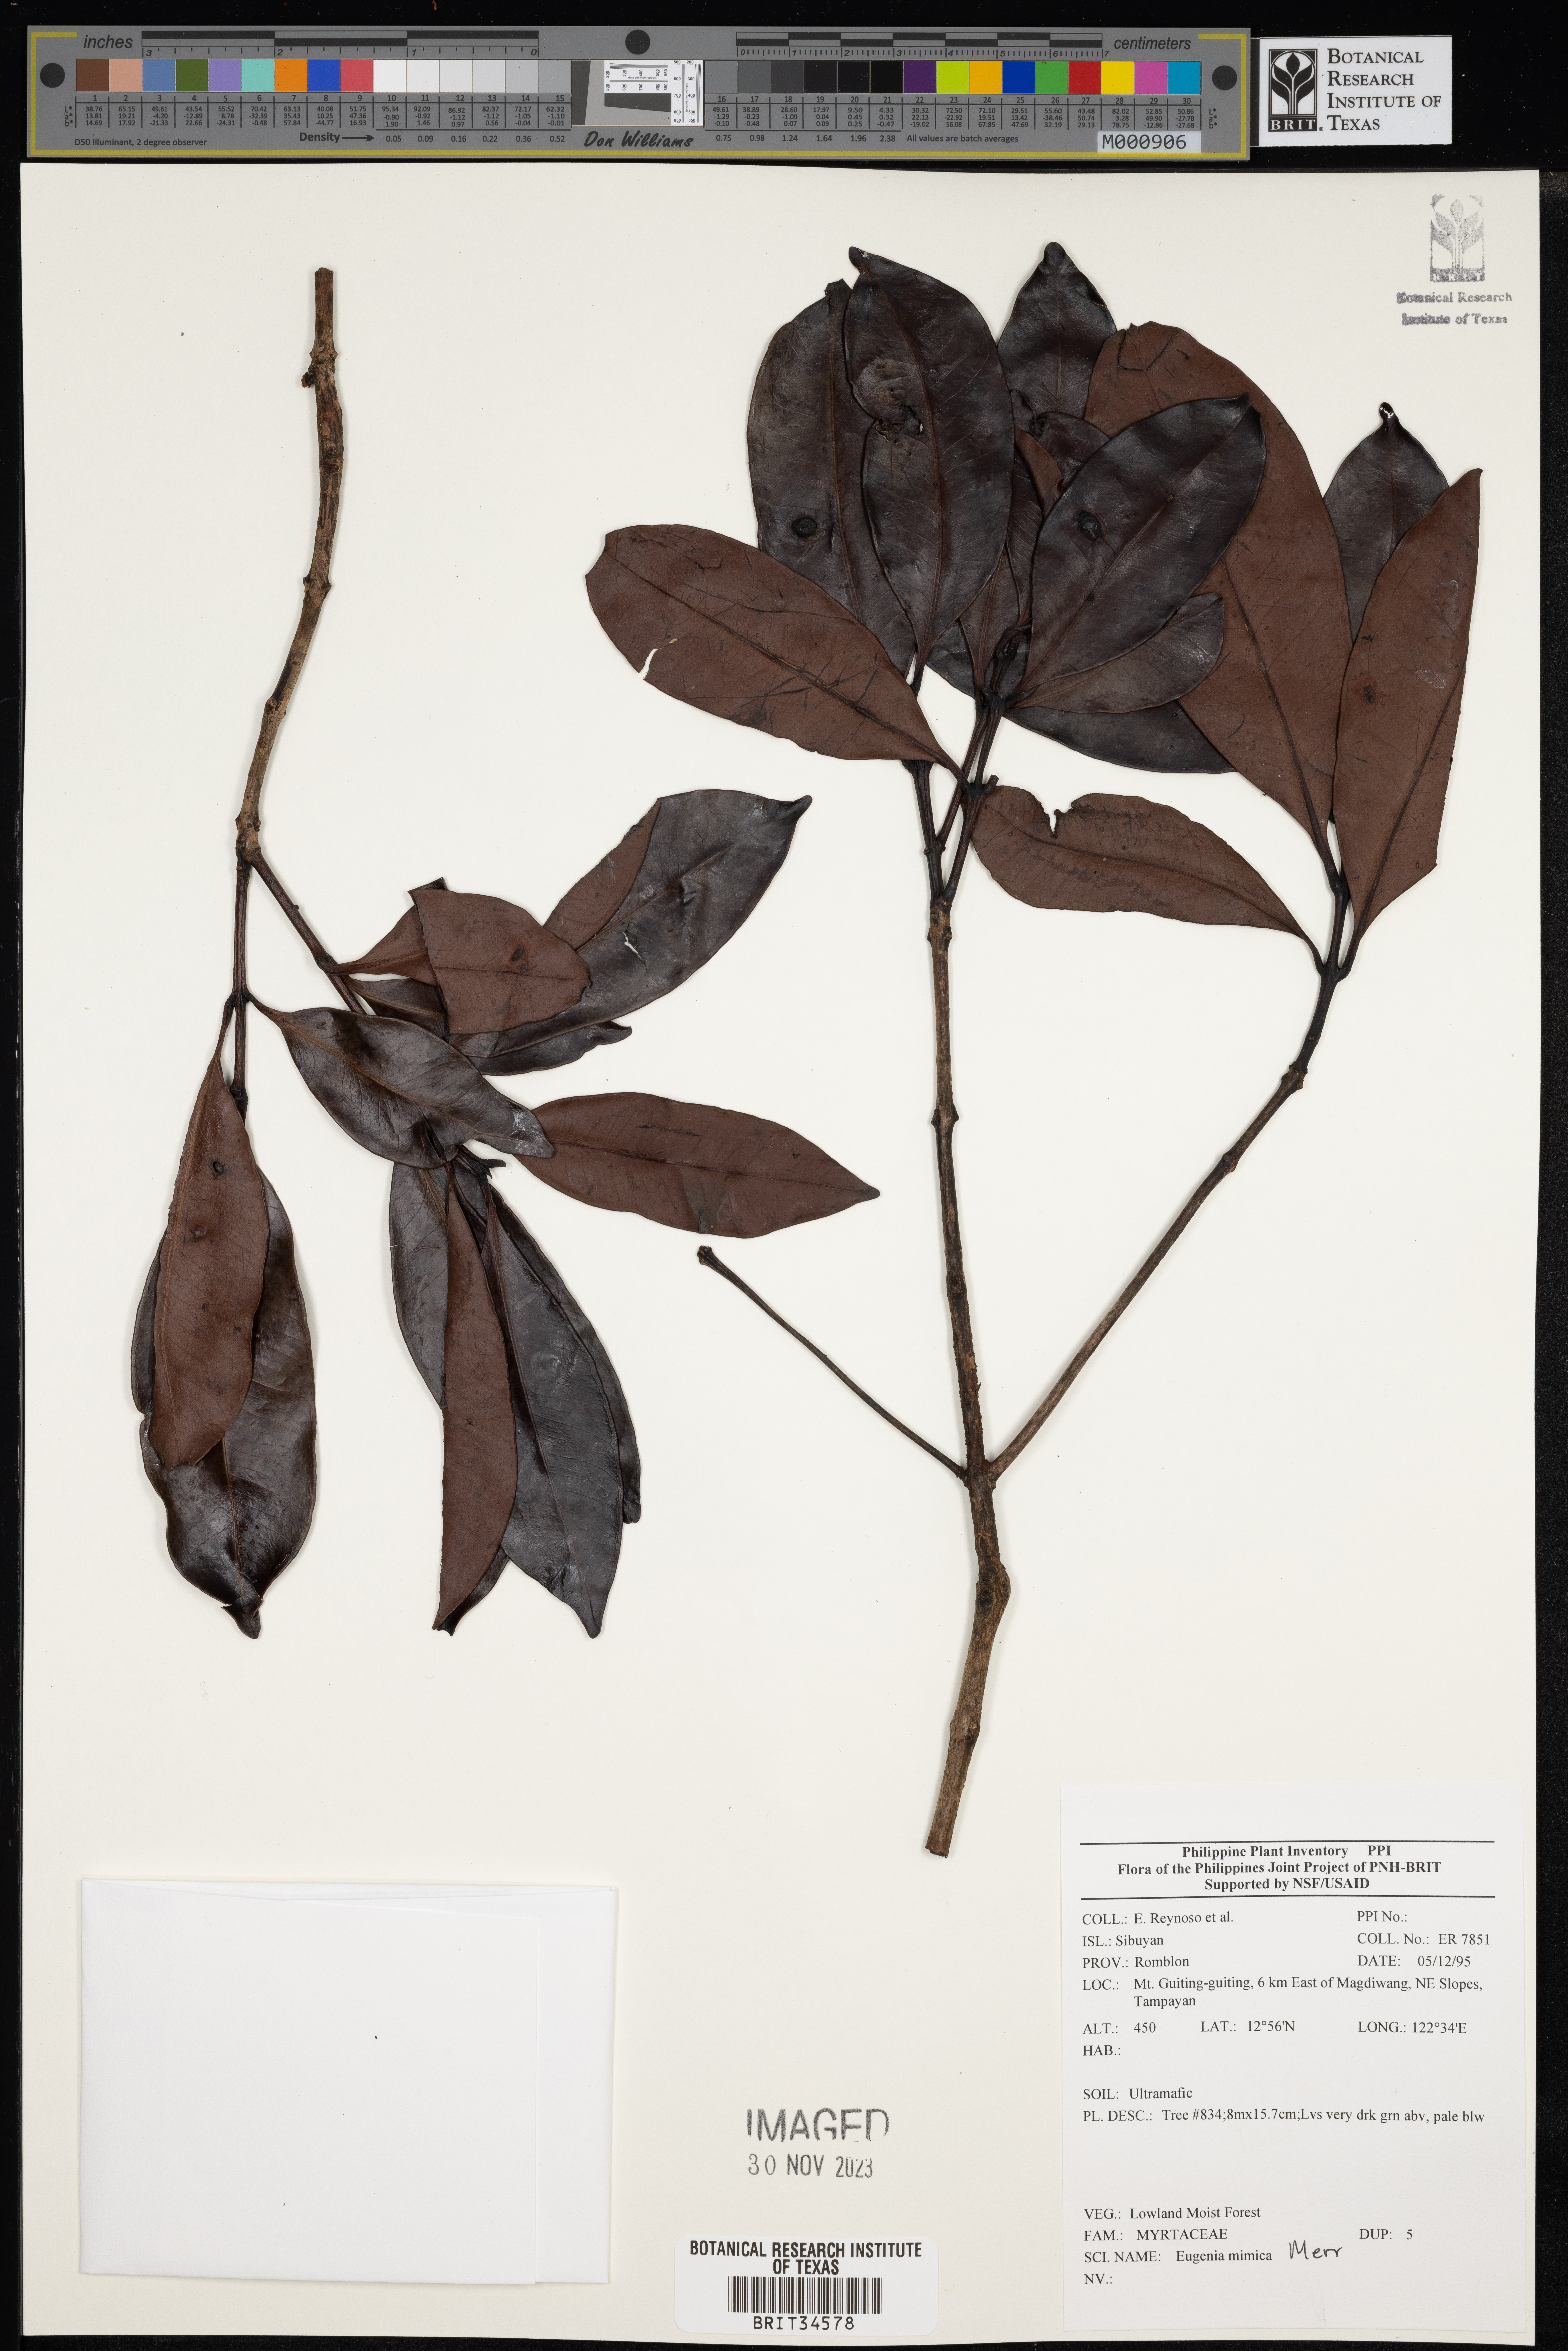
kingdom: Plantae
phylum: Tracheophyta
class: Magnoliopsida
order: Myrtales
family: Myrtaceae
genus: Eugenia
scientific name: Eugenia
